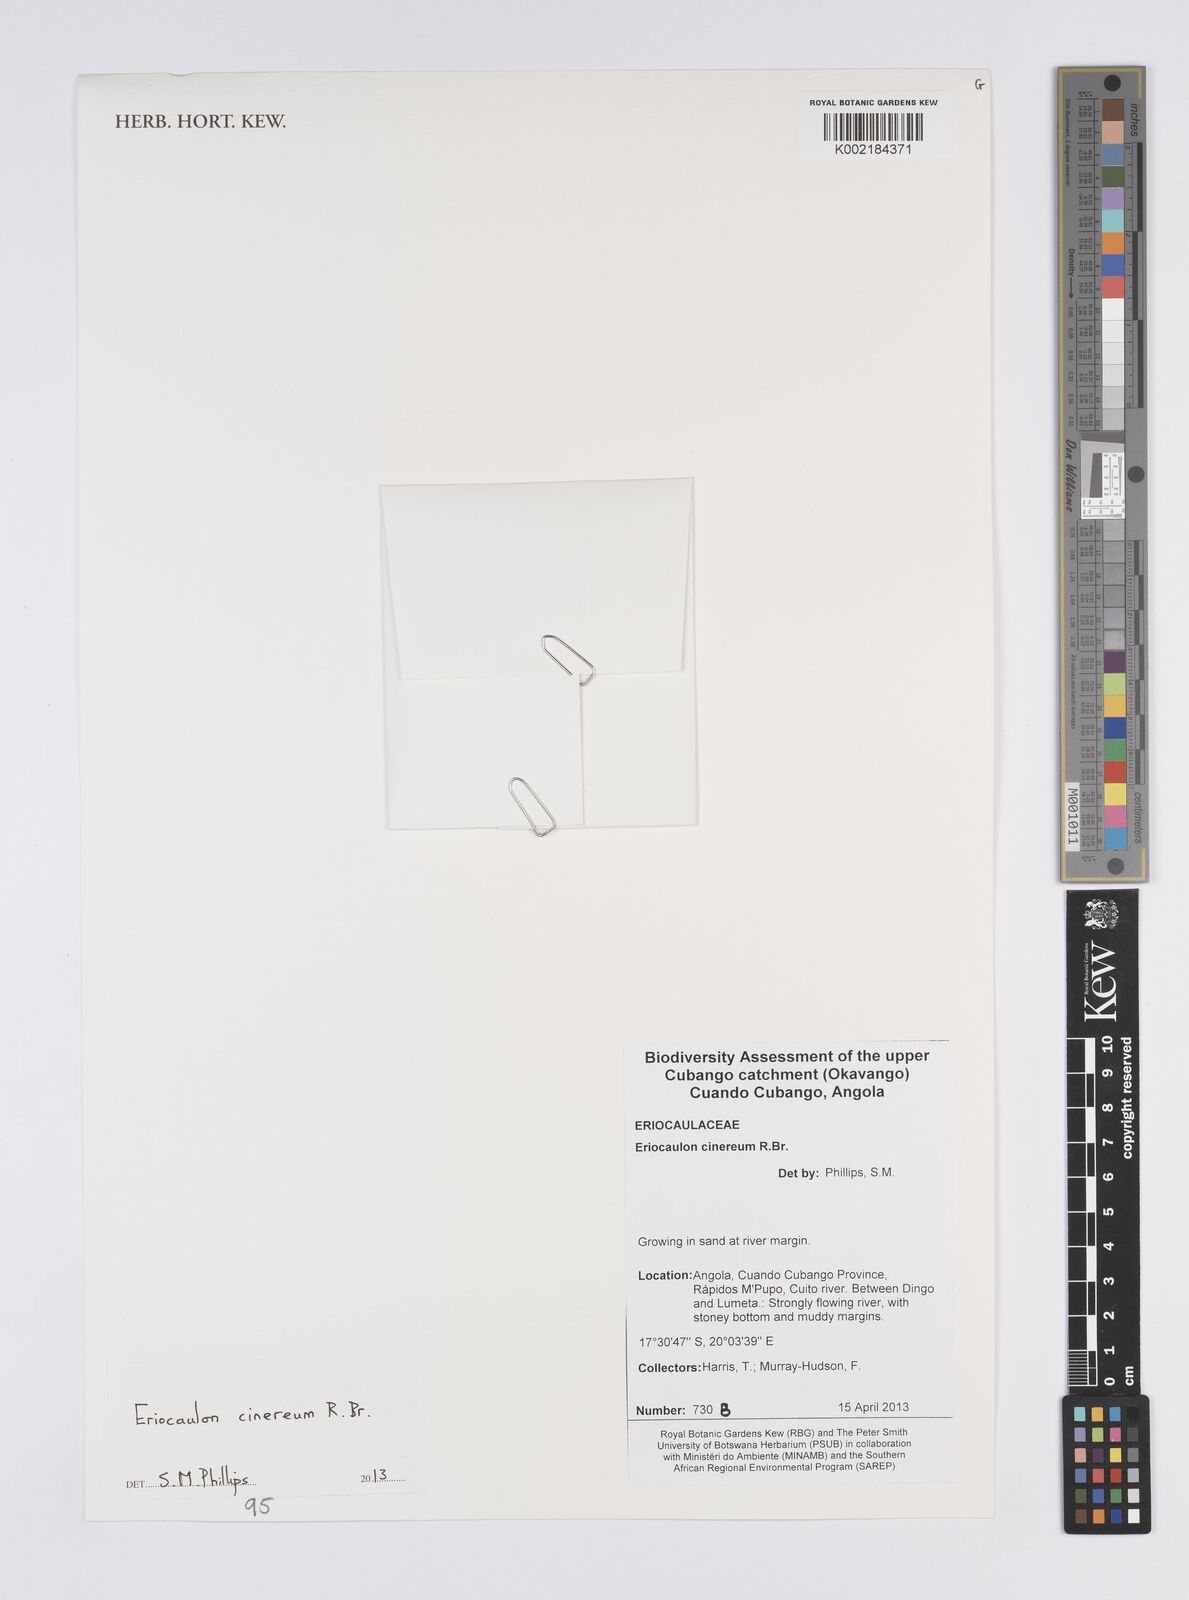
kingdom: Plantae
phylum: Tracheophyta
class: Liliopsida
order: Poales
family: Eriocaulaceae
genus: Eriocaulon
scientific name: Eriocaulon cinereum
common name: Ashy pipewort
